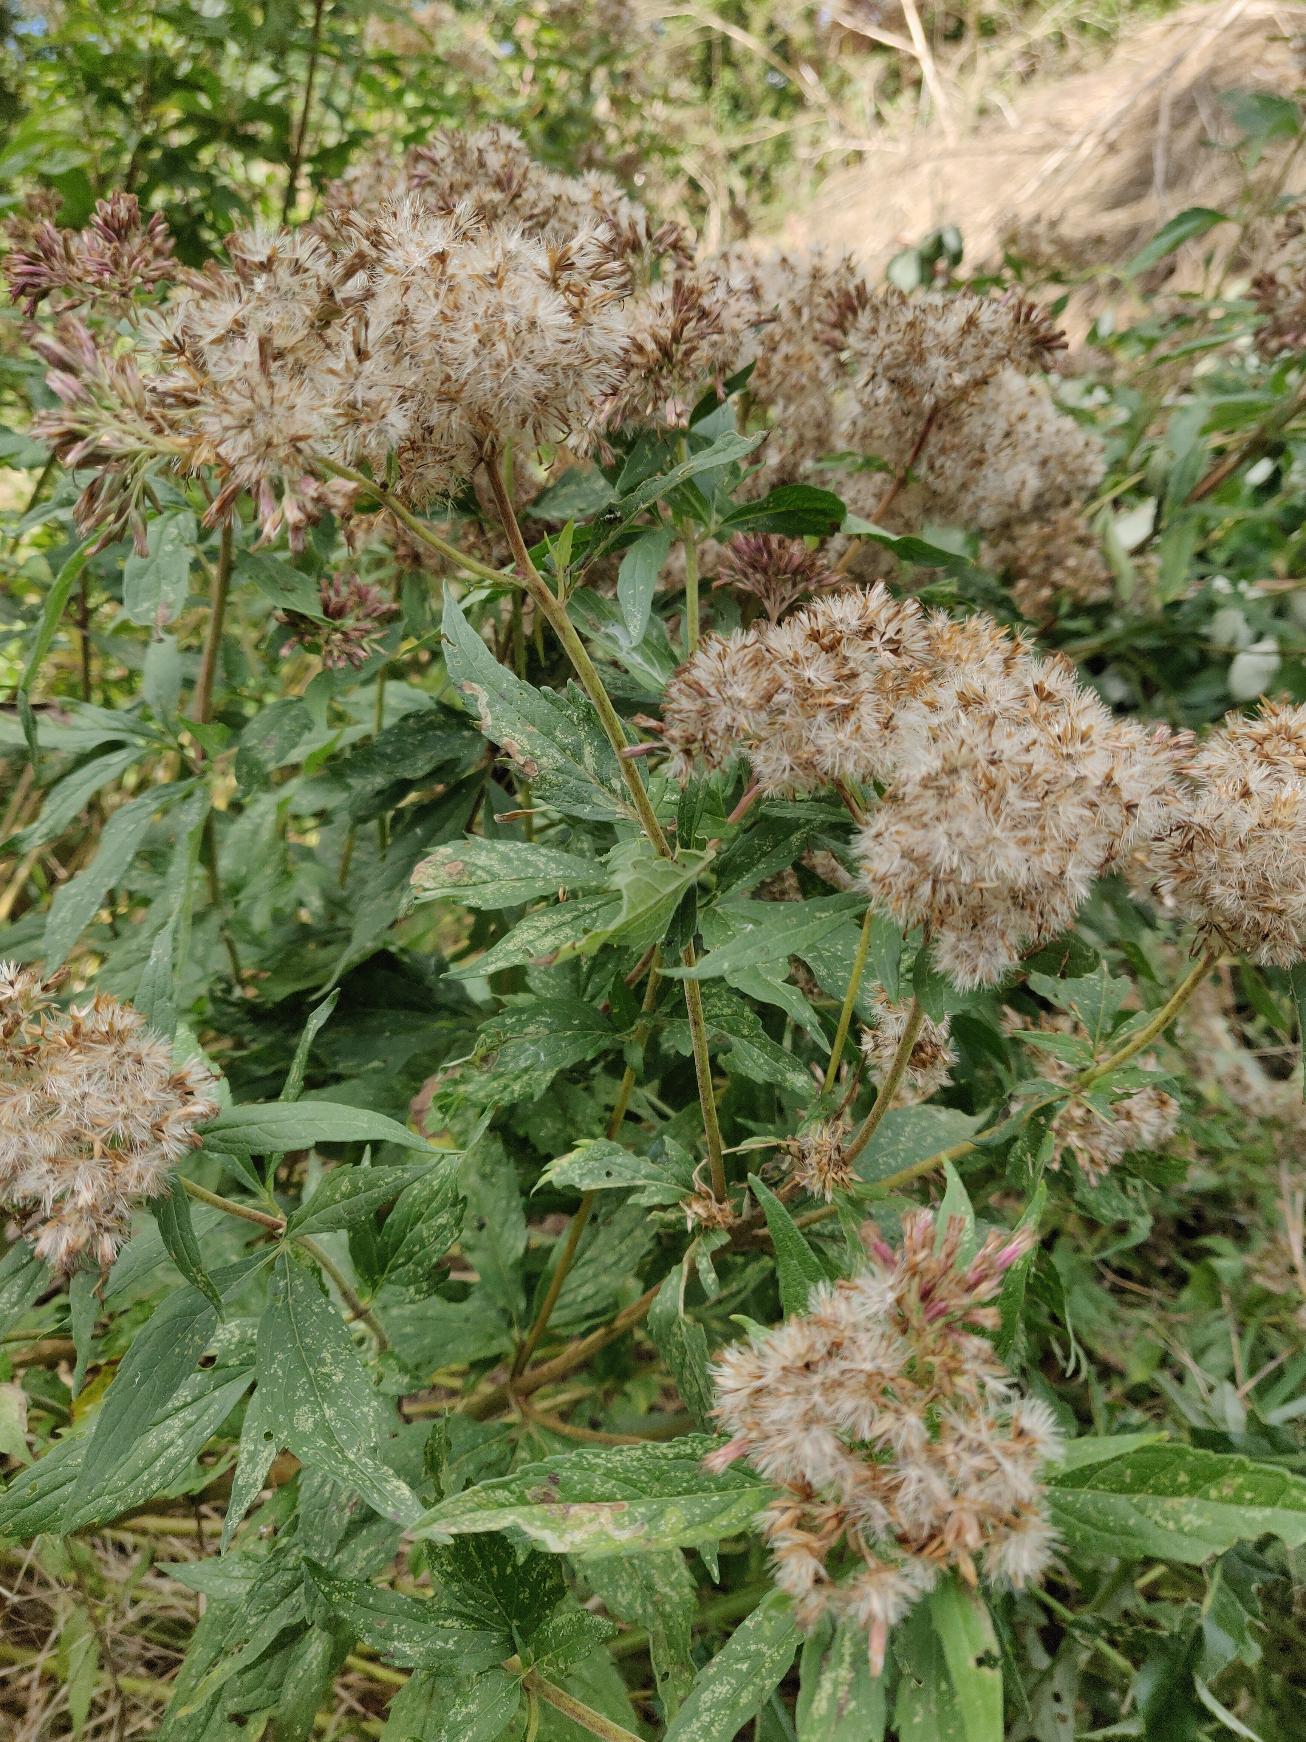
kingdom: Plantae
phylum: Tracheophyta
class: Magnoliopsida
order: Asterales
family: Asteraceae
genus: Eupatorium
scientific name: Eupatorium cannabinum
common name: Hjortetrøst
